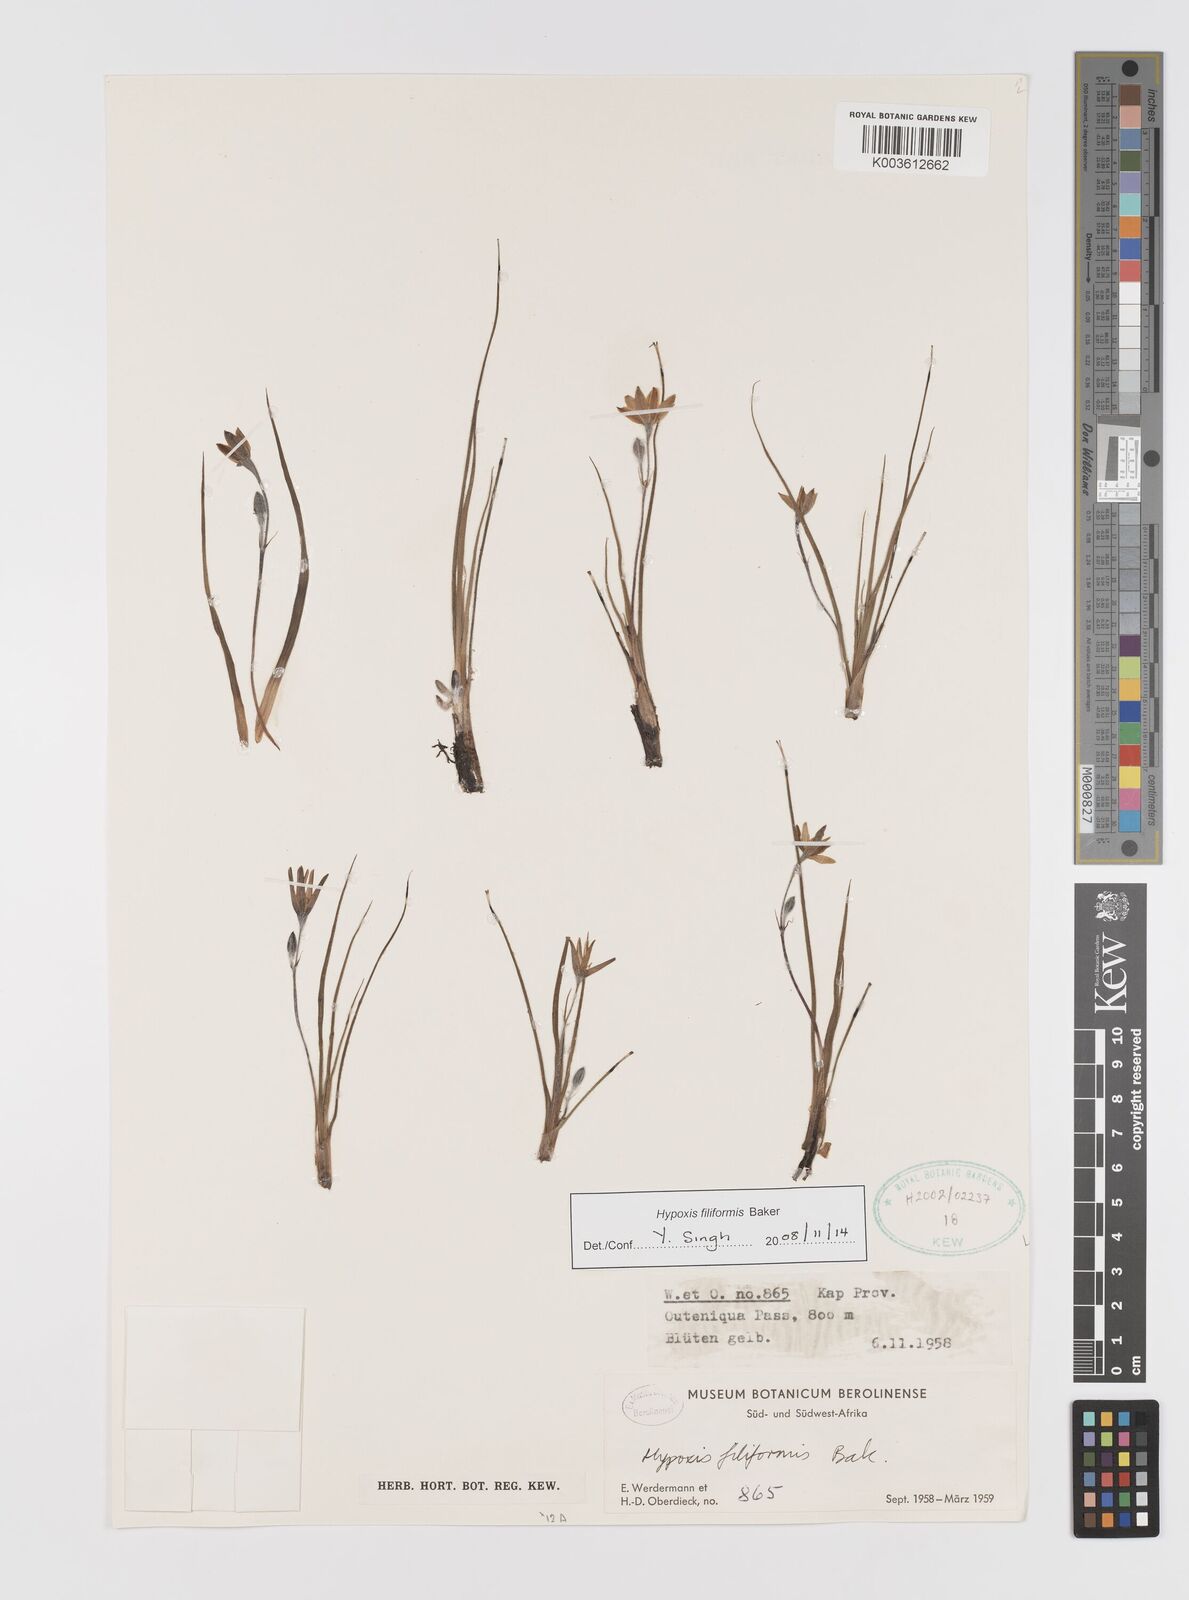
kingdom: Plantae
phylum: Tracheophyta
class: Liliopsida
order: Asparagales
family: Hypoxidaceae
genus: Hypoxis
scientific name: Hypoxis filiformis
